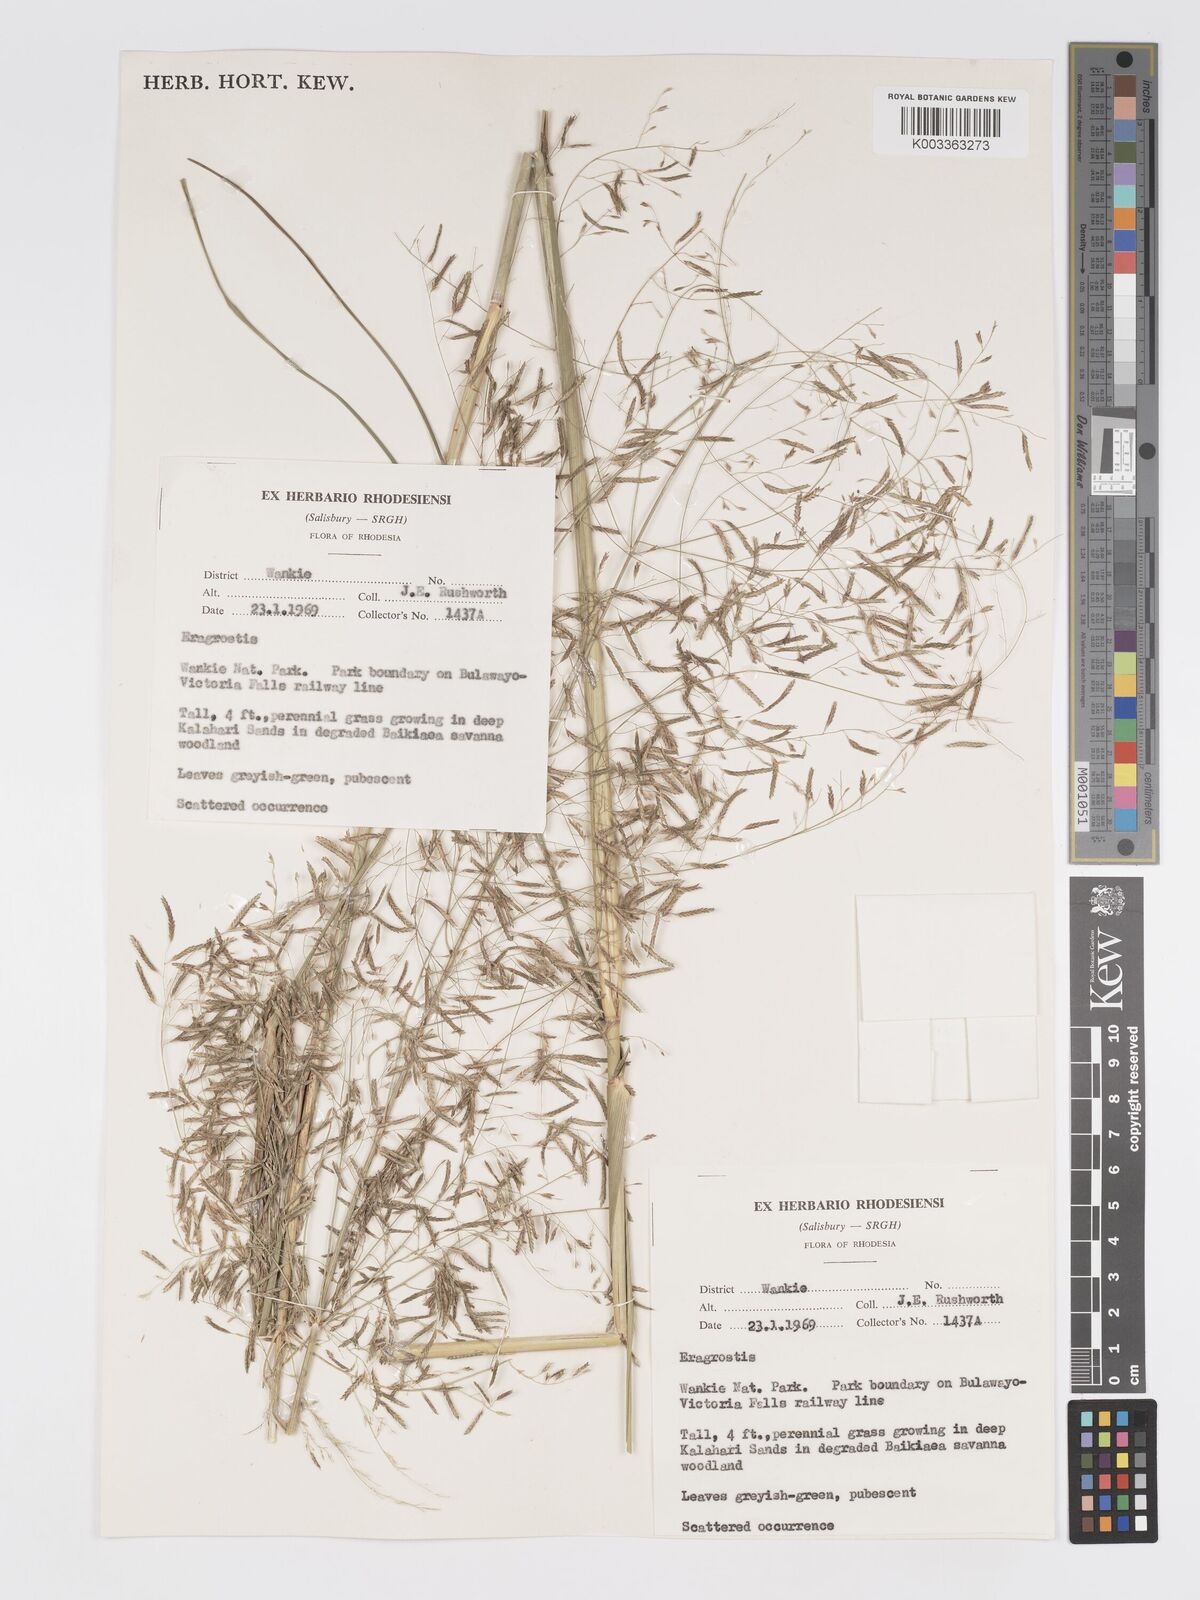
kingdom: Plantae
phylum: Tracheophyta
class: Liliopsida
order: Poales
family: Poaceae
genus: Eragrostis
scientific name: Eragrostis curvula
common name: African love-grass
